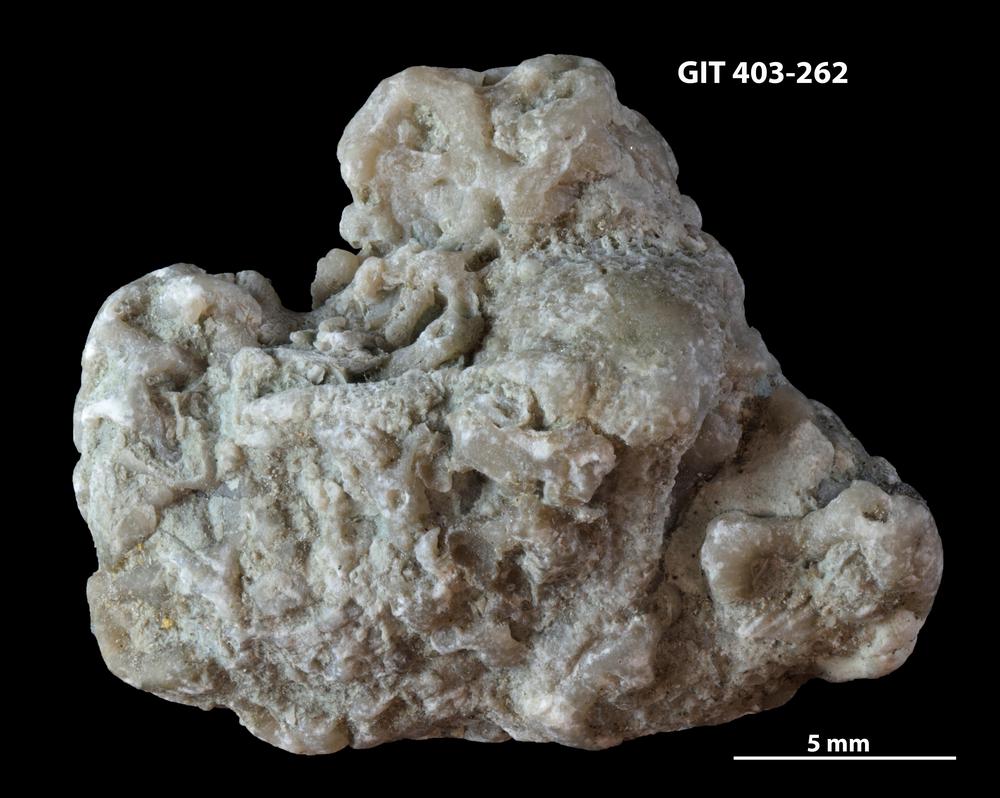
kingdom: Animalia
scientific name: Animalia
